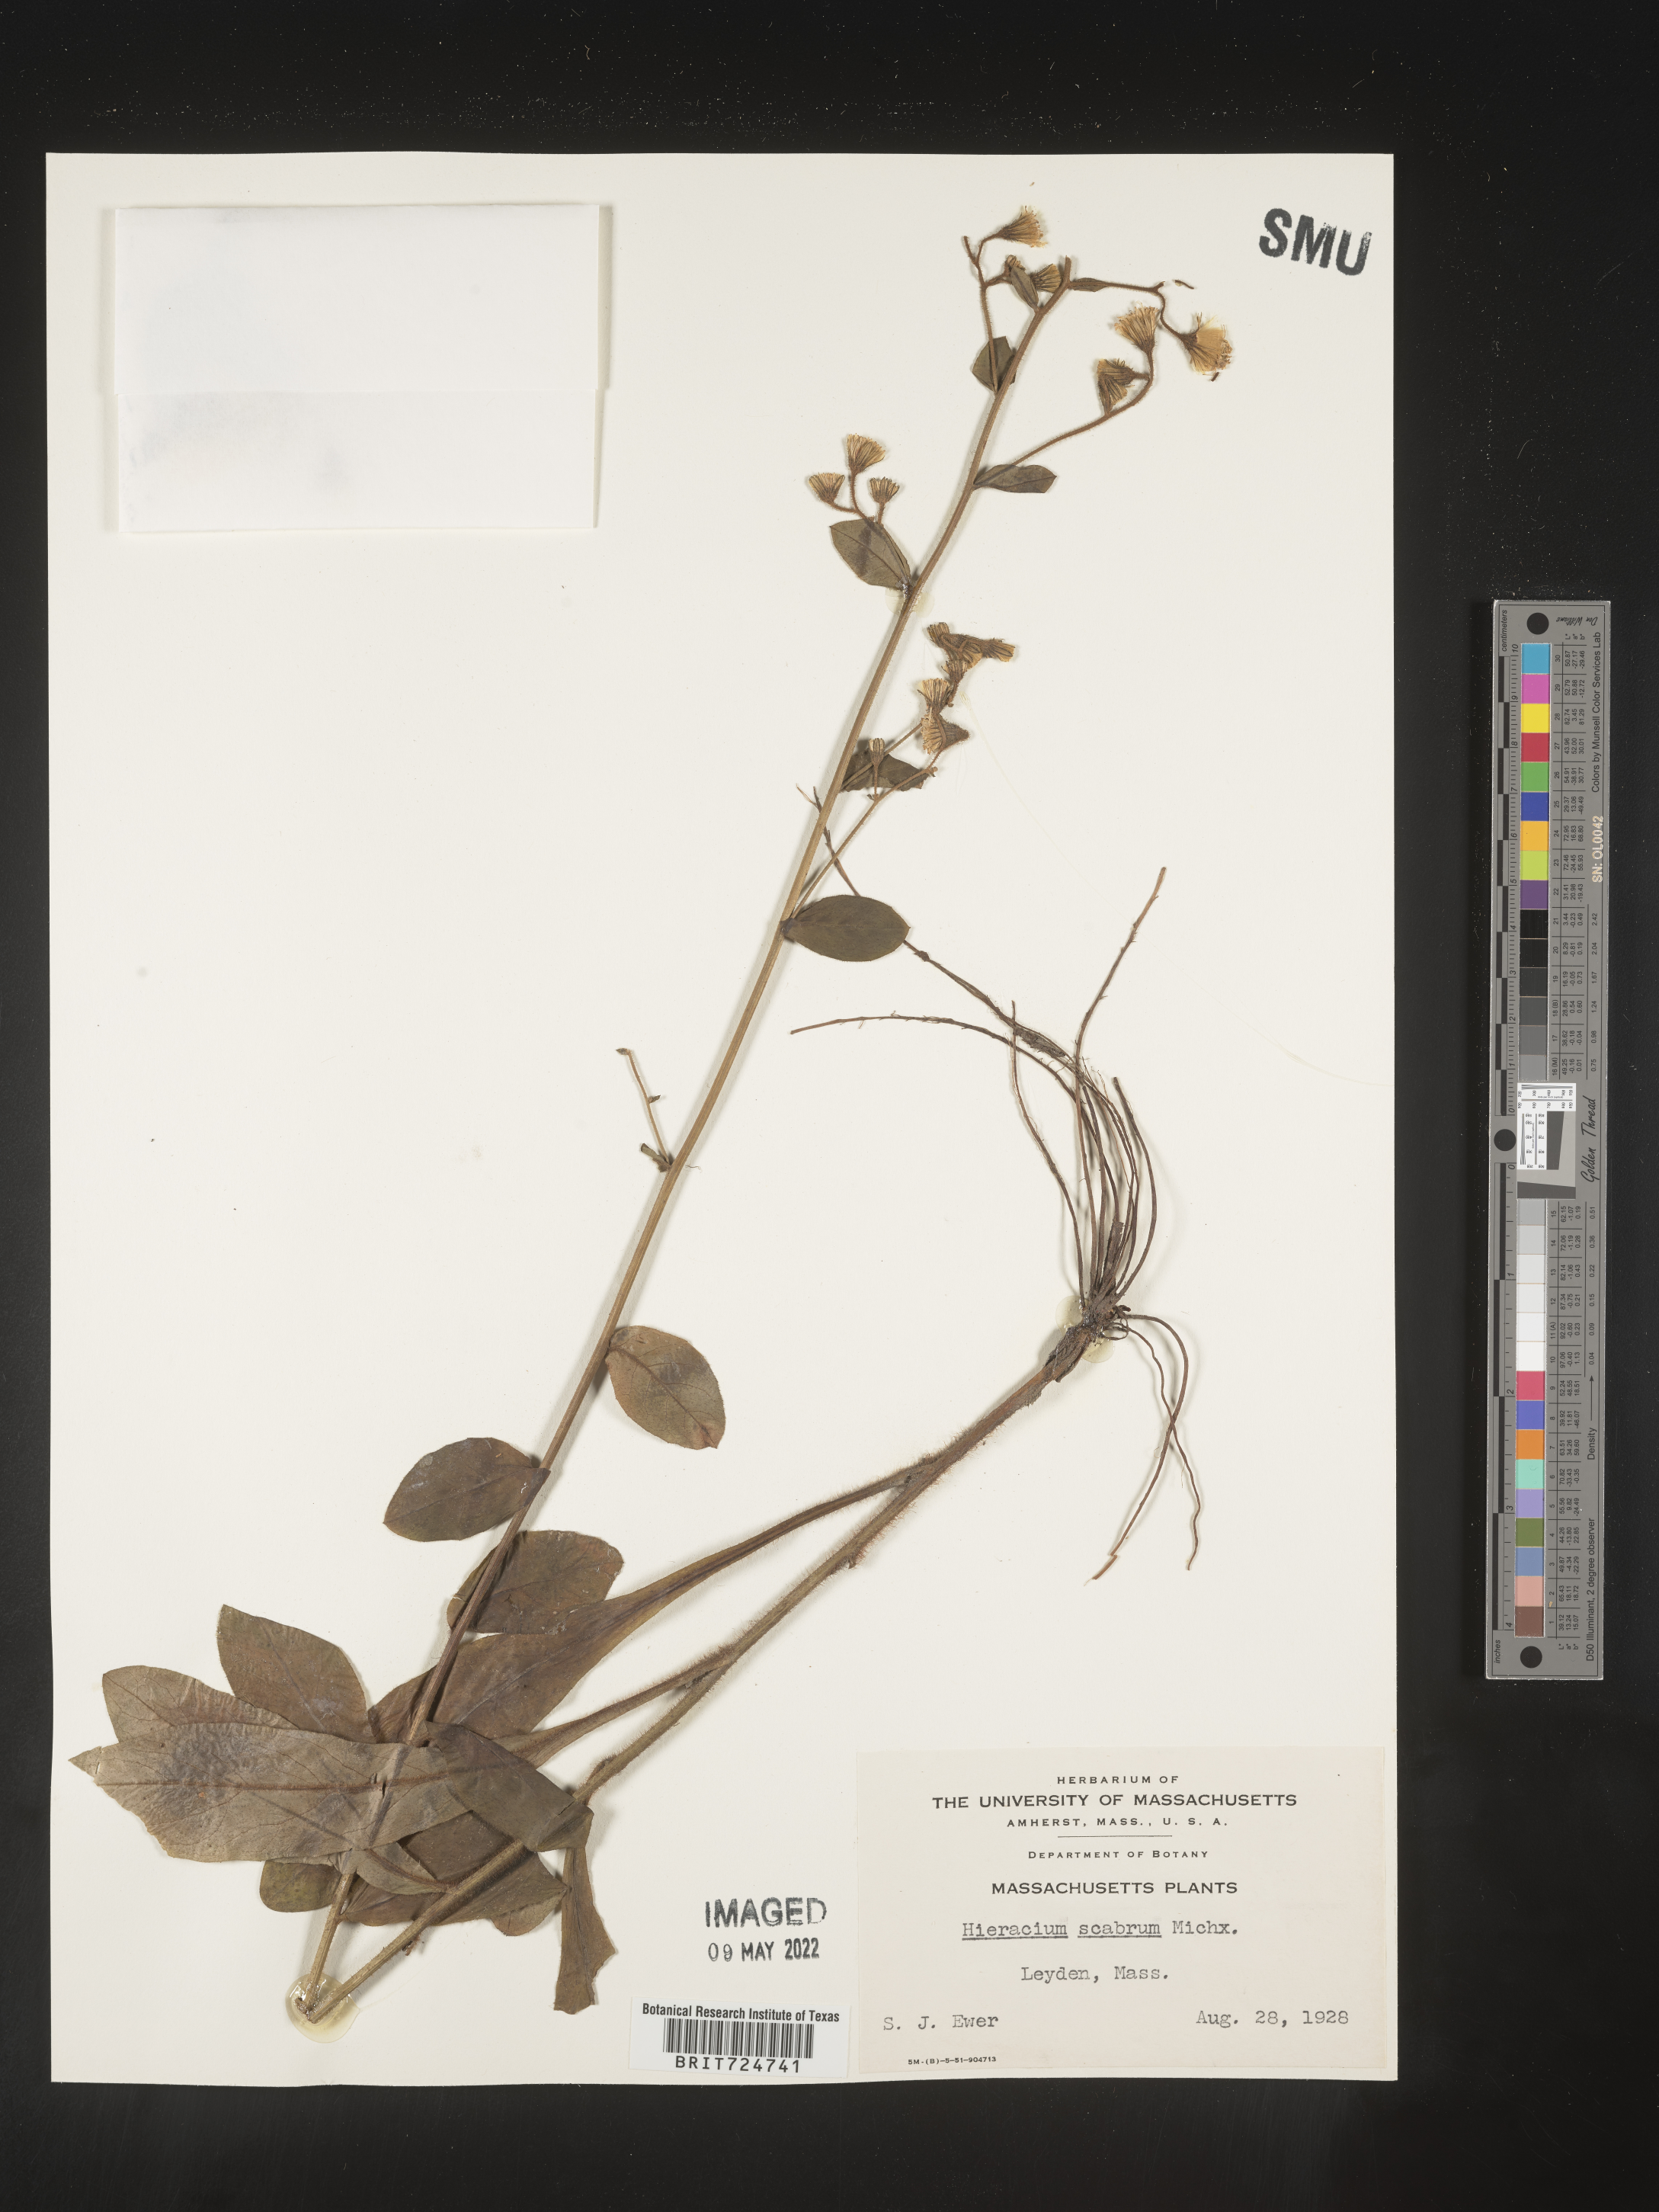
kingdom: Plantae
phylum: Tracheophyta
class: Magnoliopsida
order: Asterales
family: Asteraceae
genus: Hieracium
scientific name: Hieracium scabrum
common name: Rough hawkweed
